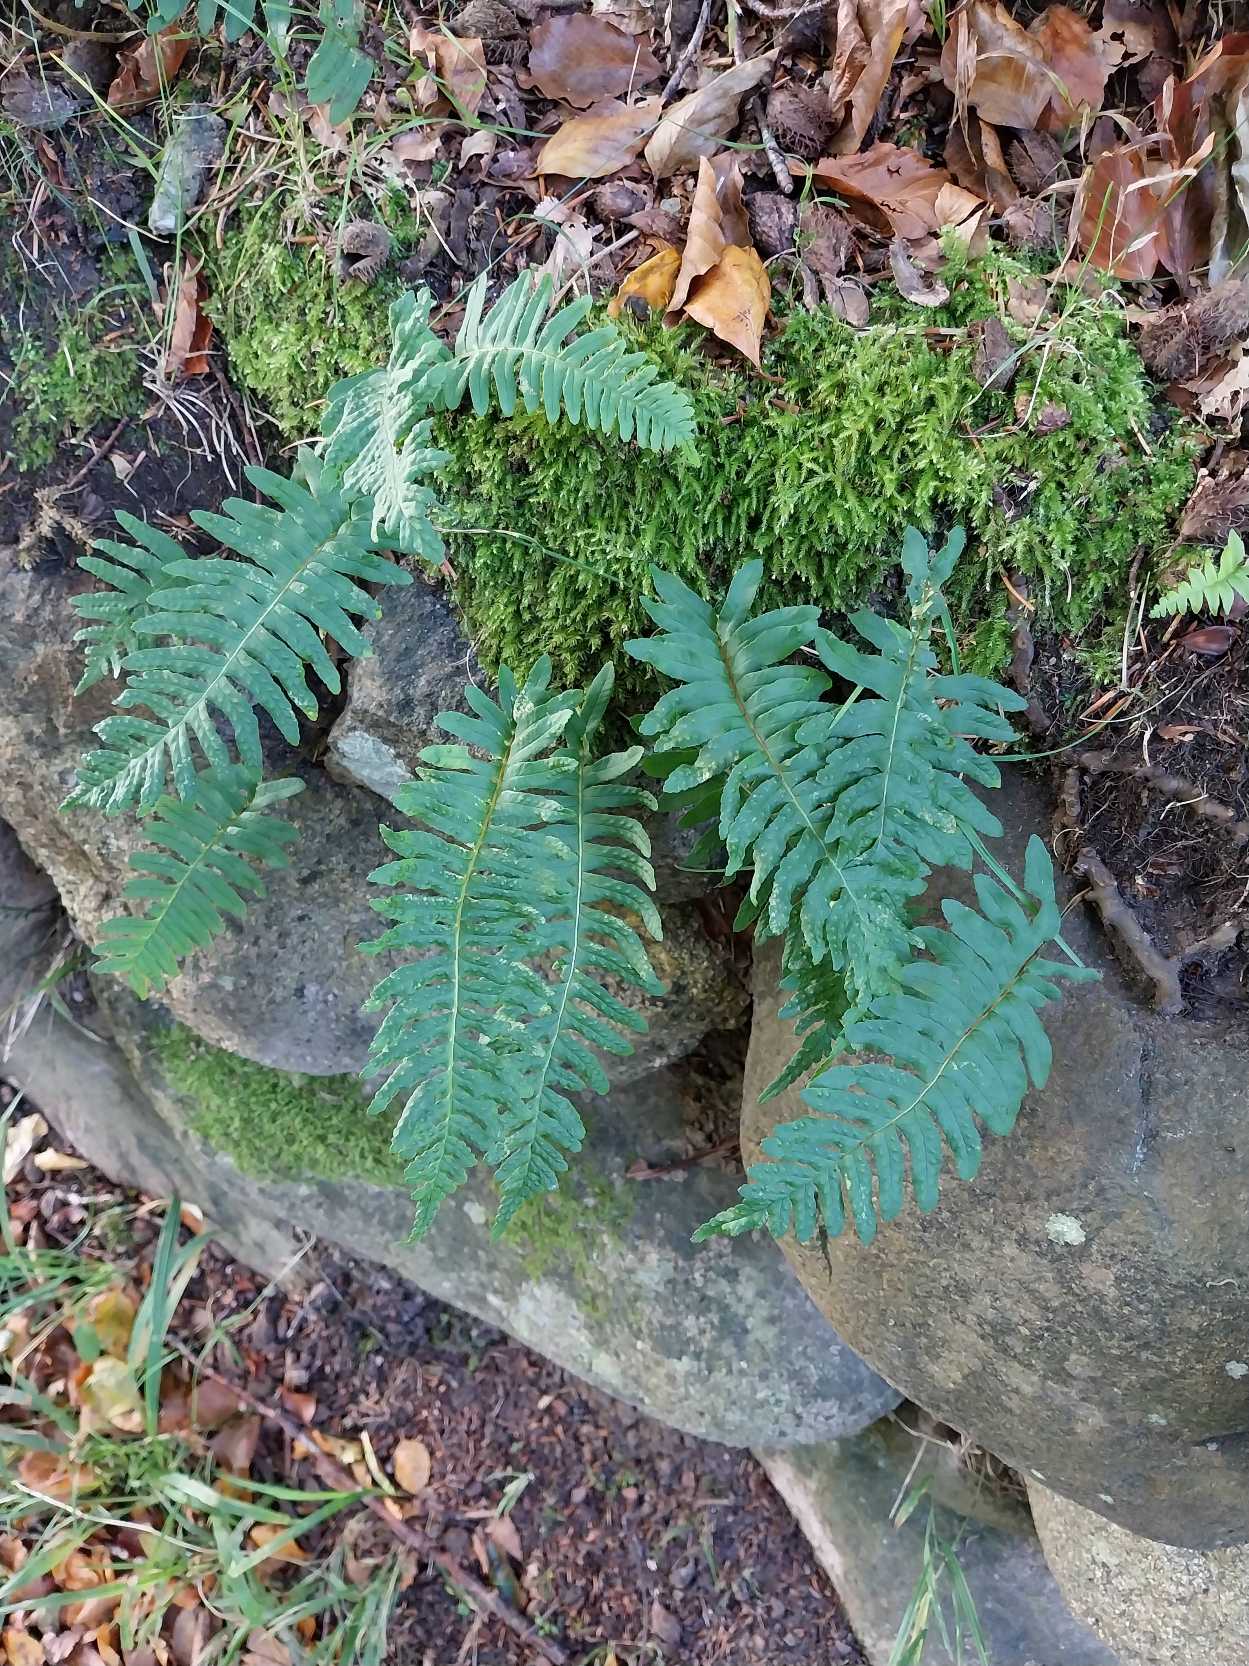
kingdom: Plantae
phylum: Tracheophyta
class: Polypodiopsida
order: Polypodiales
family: Polypodiaceae
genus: Polypodium
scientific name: Polypodium vulgare
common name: Almindelig engelsød
